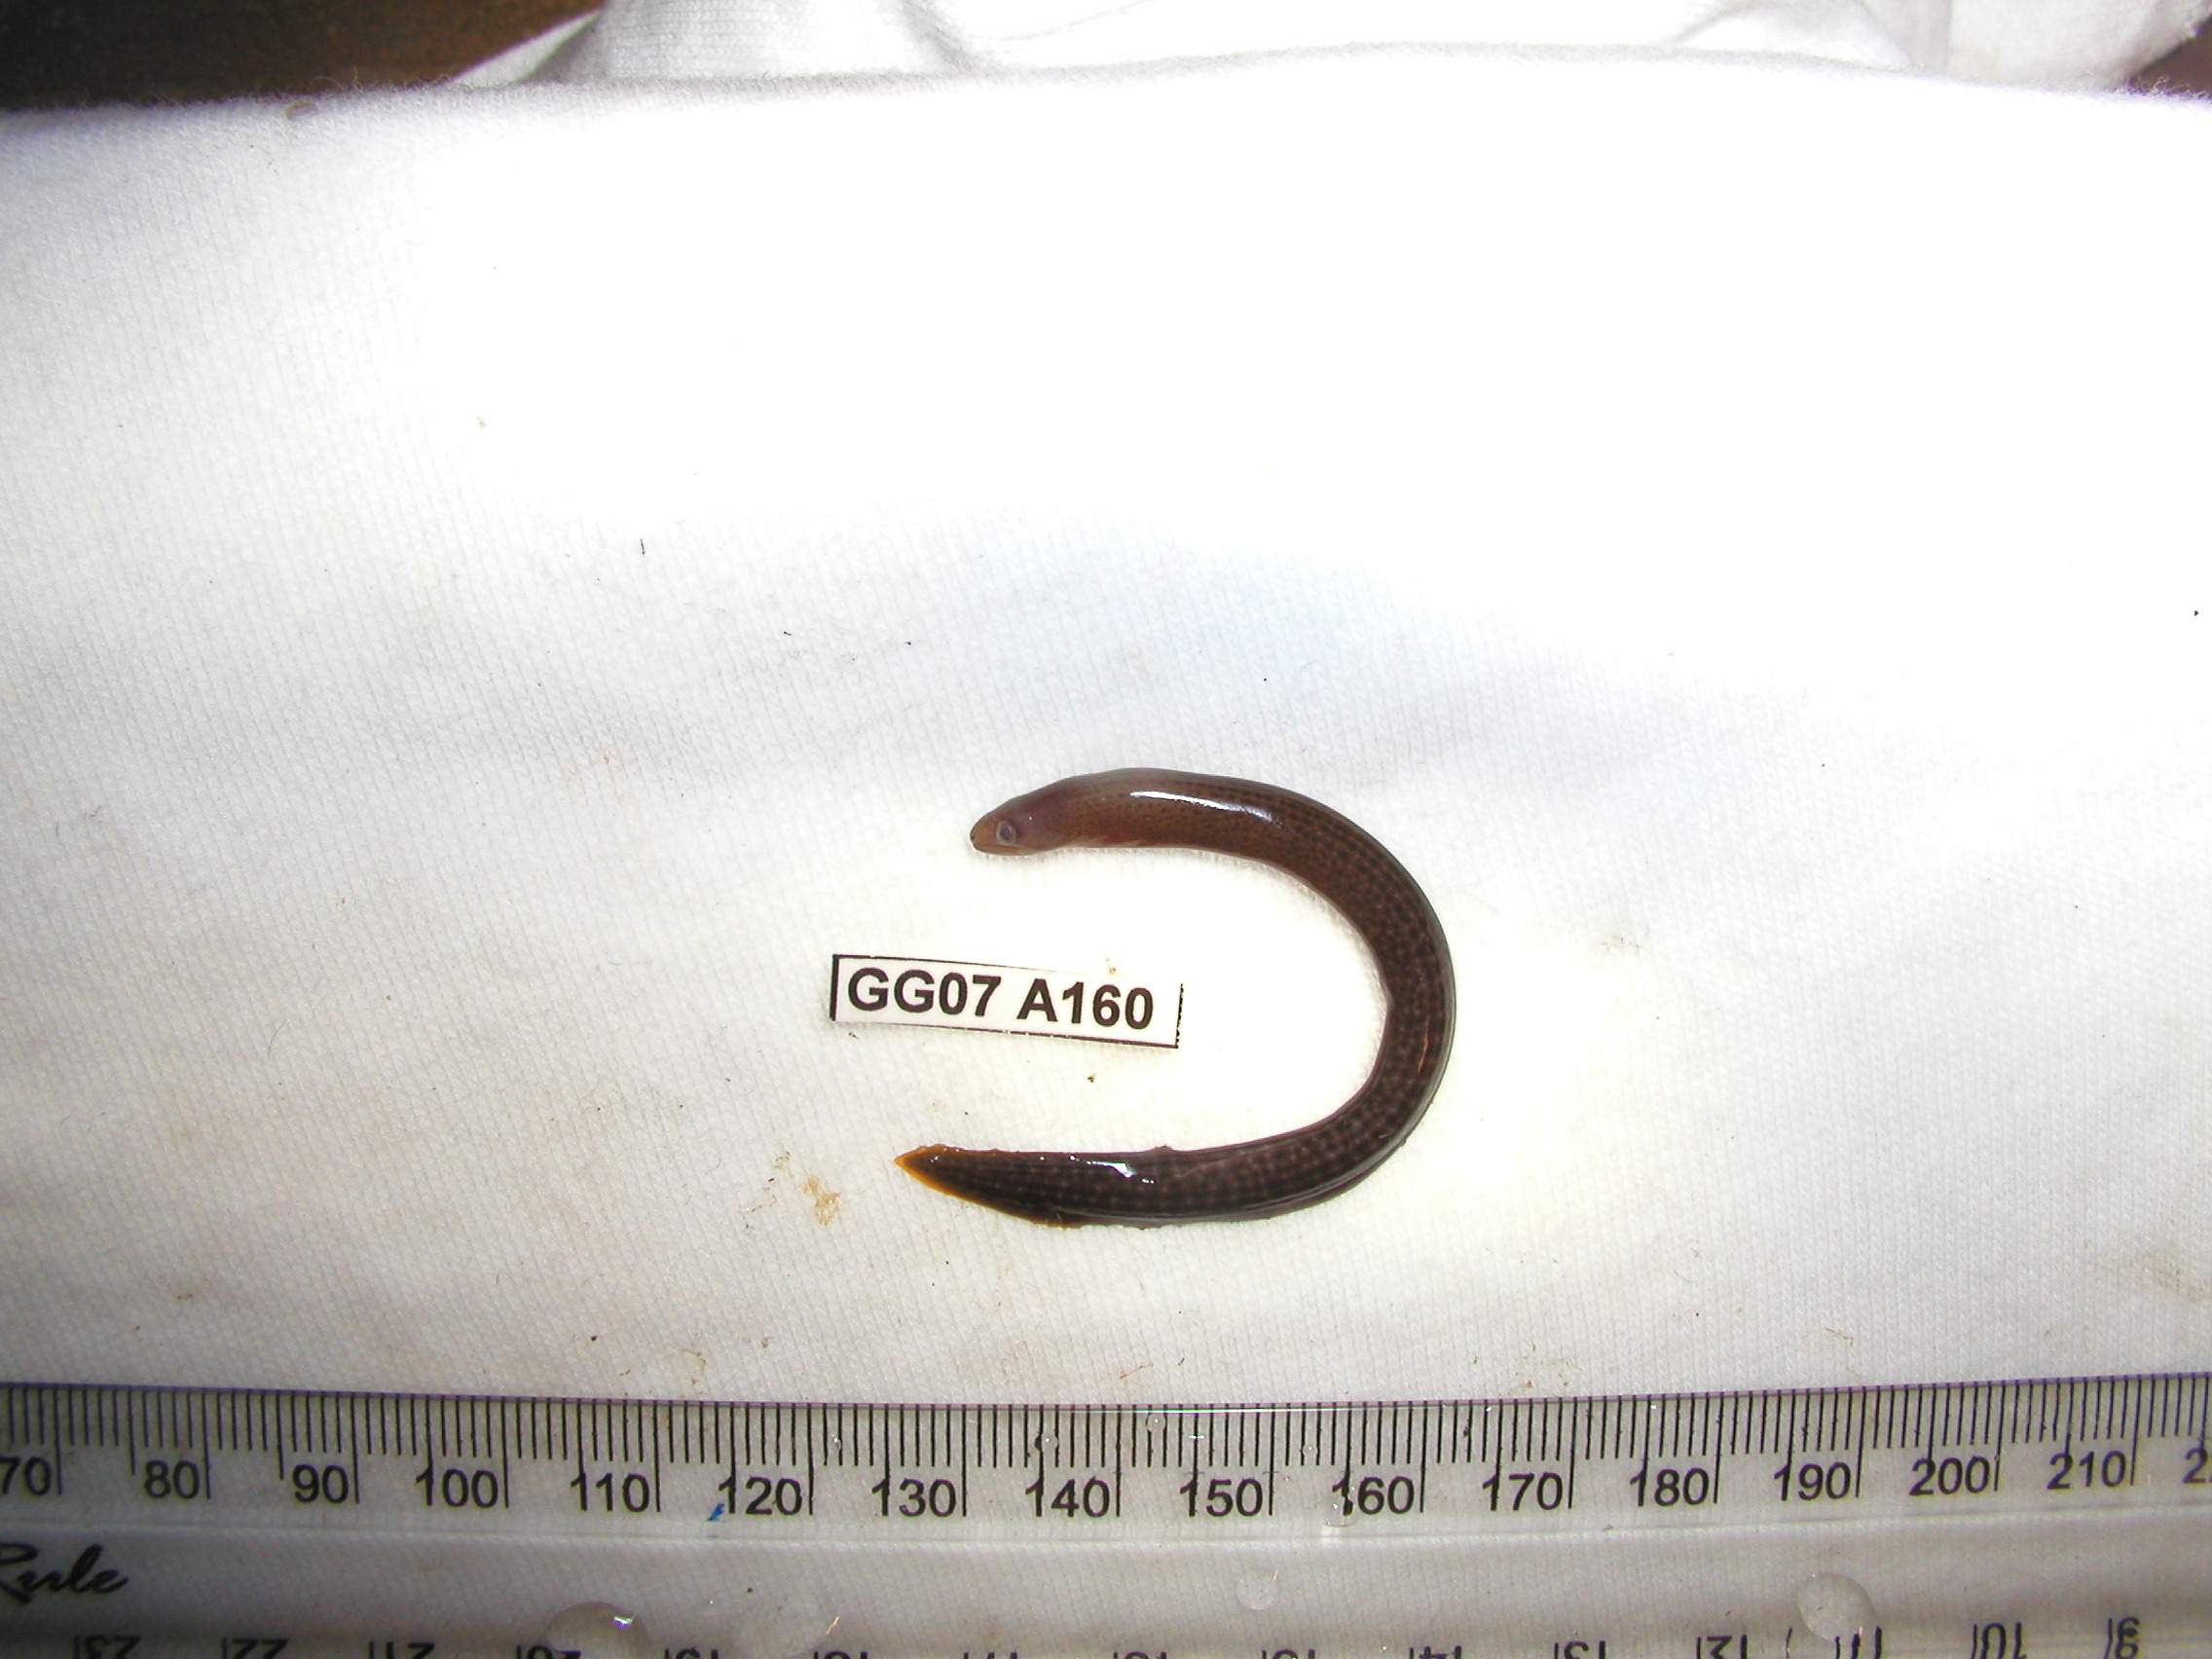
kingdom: Animalia
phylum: Chordata
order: Anguilliformes
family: Muraenidae
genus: Gymnothorax
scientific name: Gymnothorax buroensis
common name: Latticetail moray
